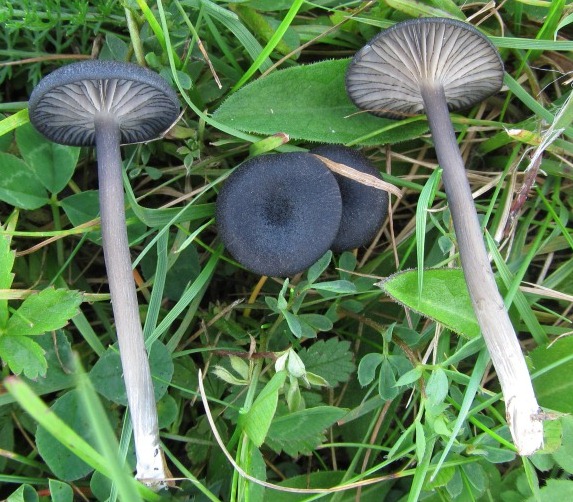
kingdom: Fungi
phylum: Basidiomycota
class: Agaricomycetes
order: Agaricales
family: Entolomataceae
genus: Entoloma
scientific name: Entoloma
